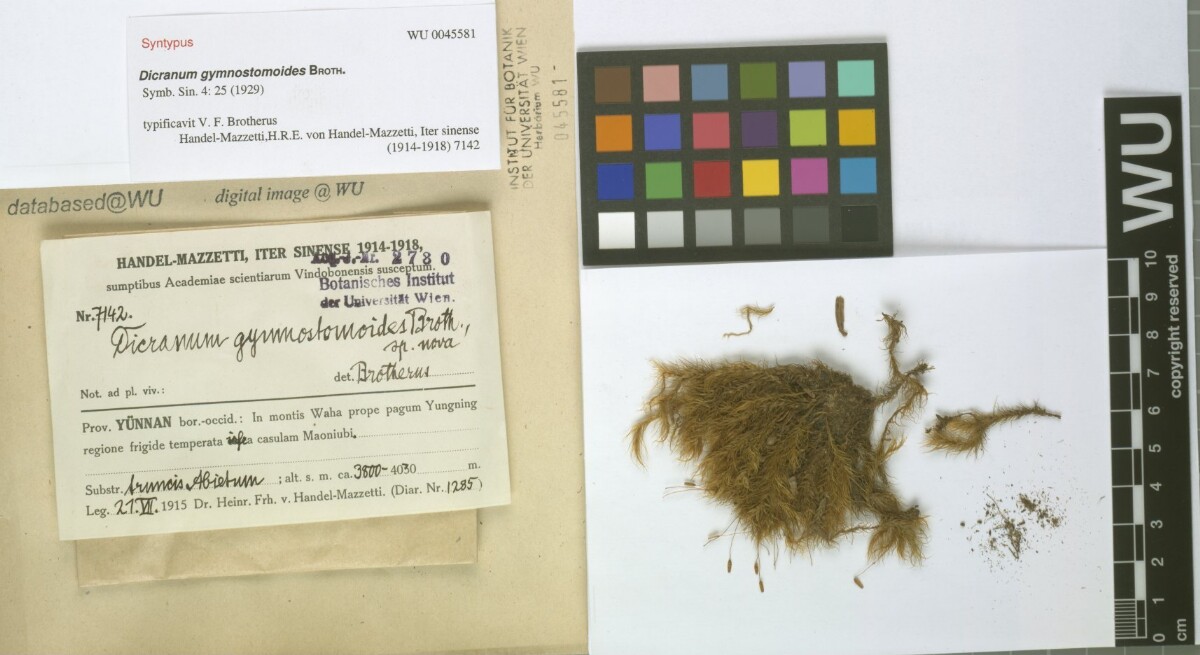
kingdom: Plantae
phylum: Bryophyta
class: Bryopsida
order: Dicranales
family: Dicranaceae
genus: Pseudochorisodontium
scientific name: Pseudochorisodontium gymnostomum
